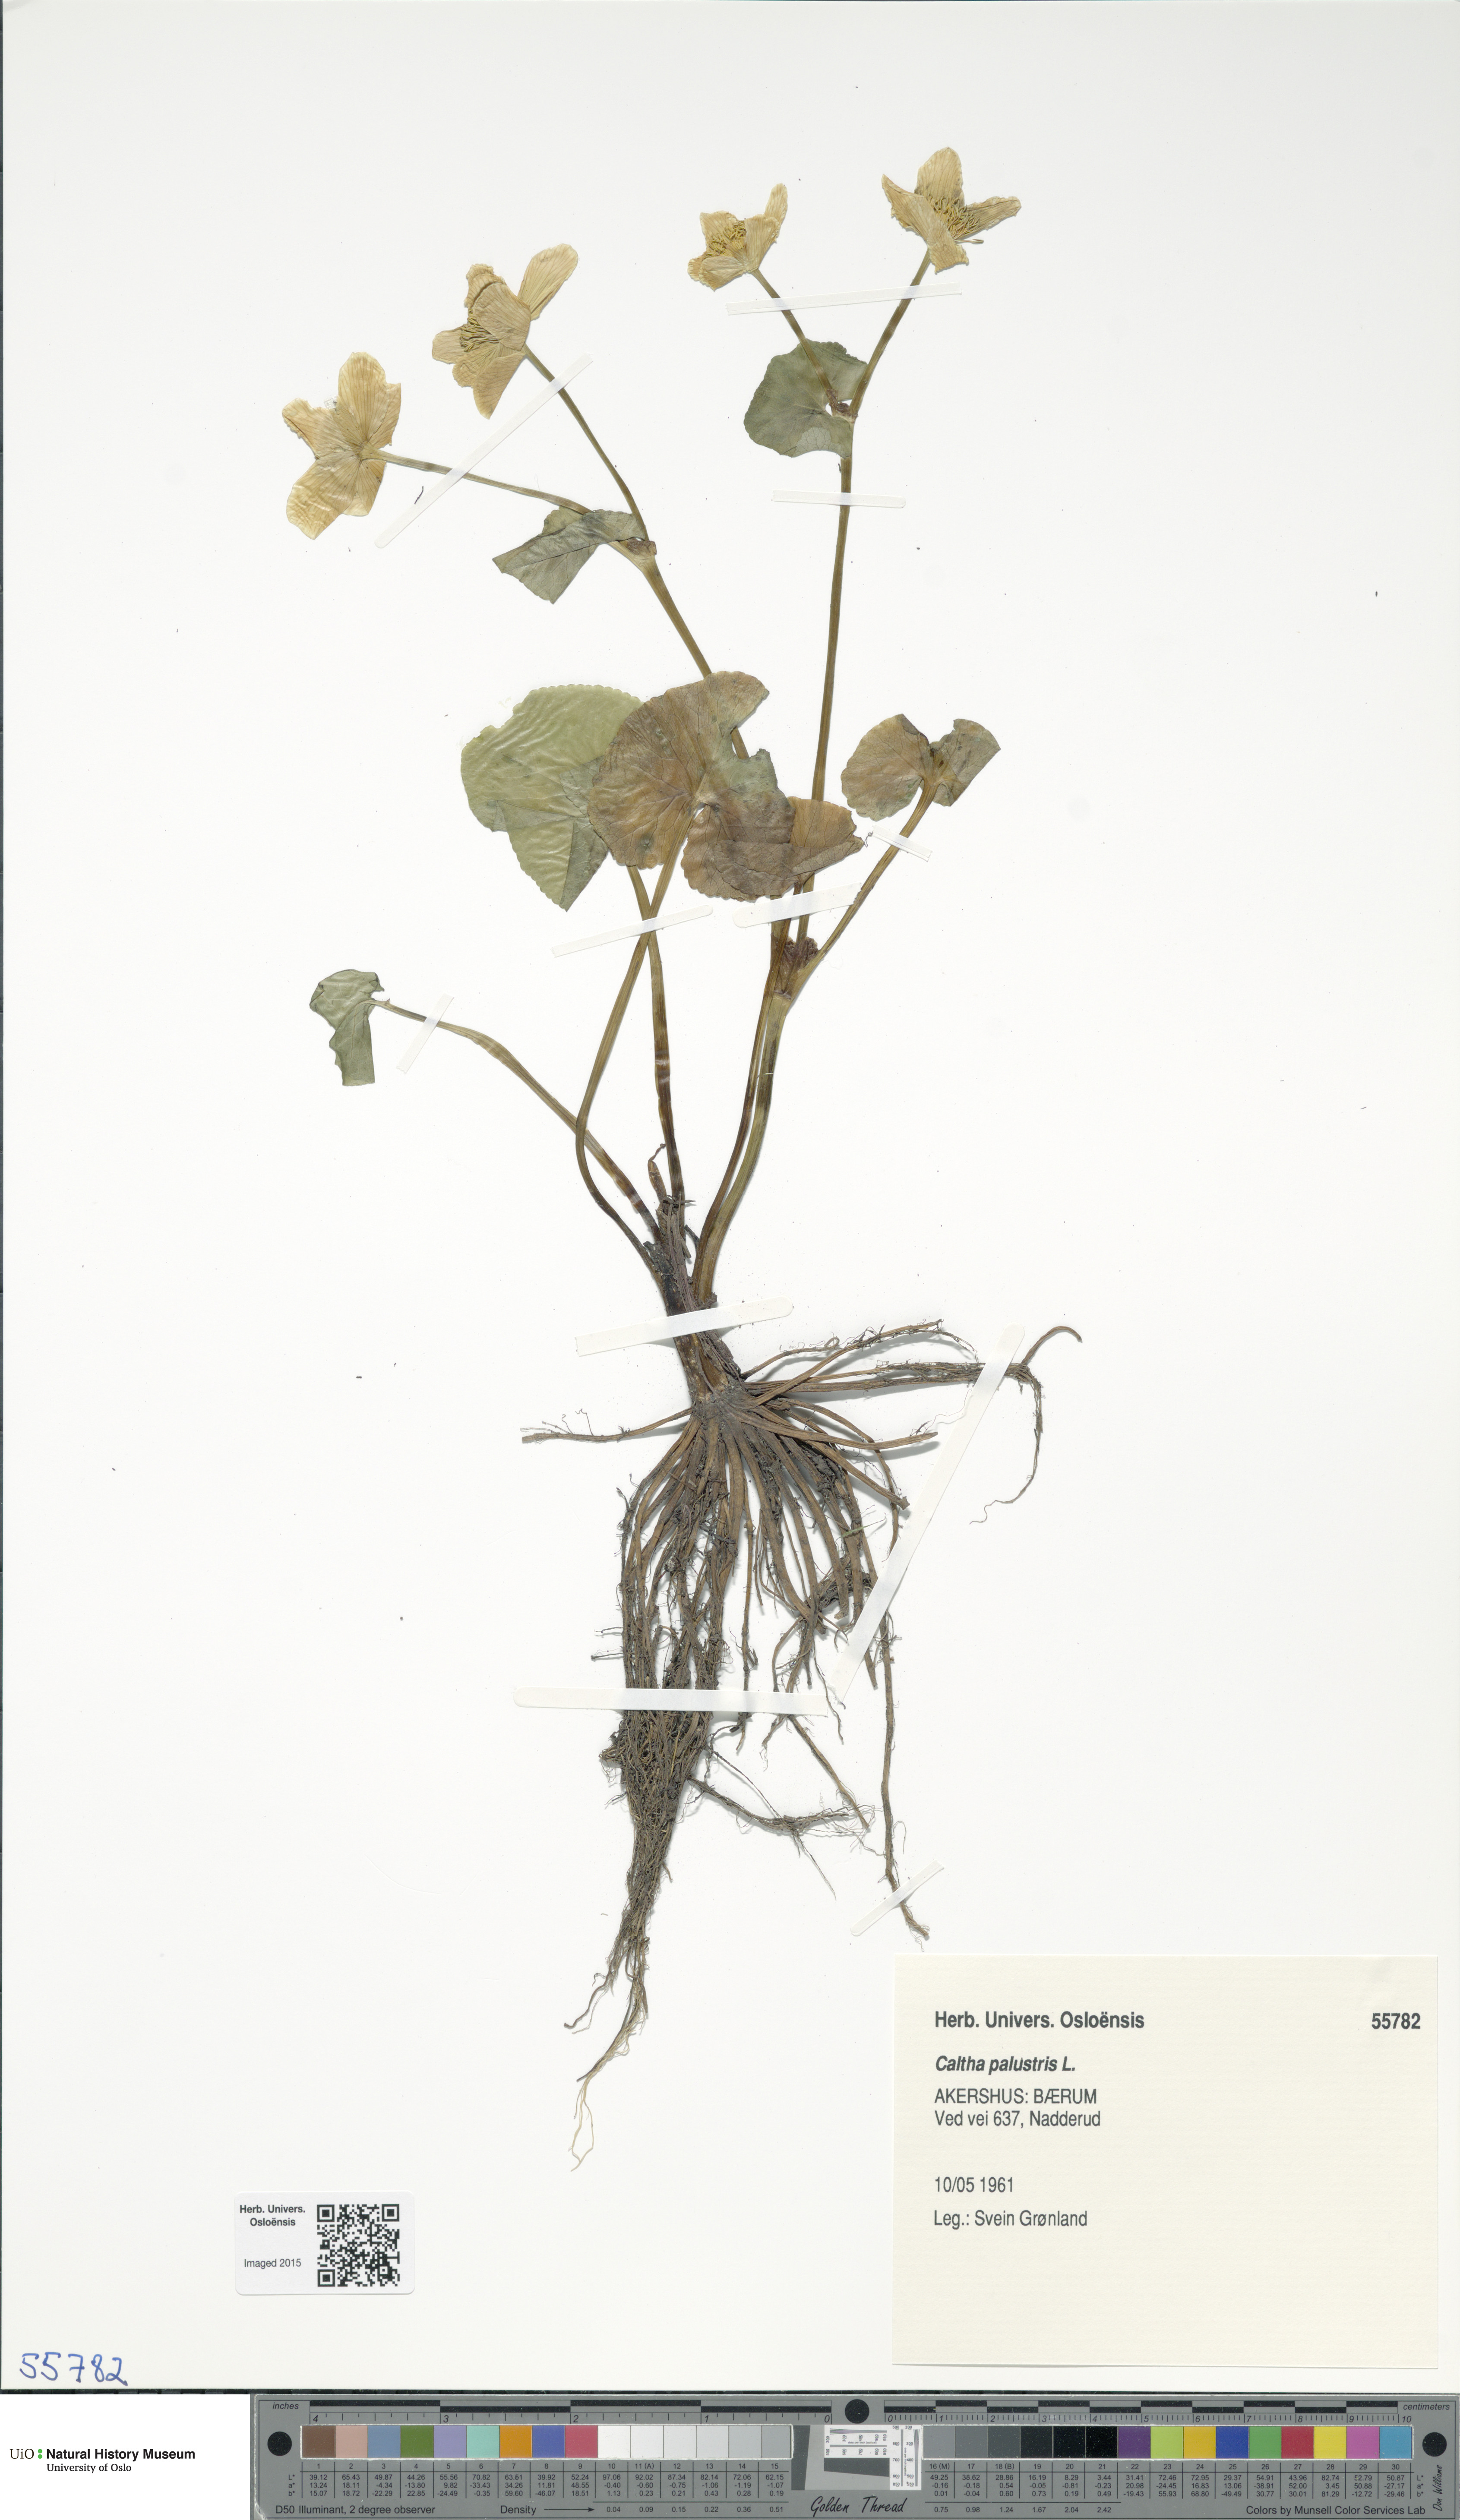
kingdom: Plantae
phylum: Tracheophyta
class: Magnoliopsida
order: Ranunculales
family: Ranunculaceae
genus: Caltha
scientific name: Caltha palustris
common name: Marsh marigold
